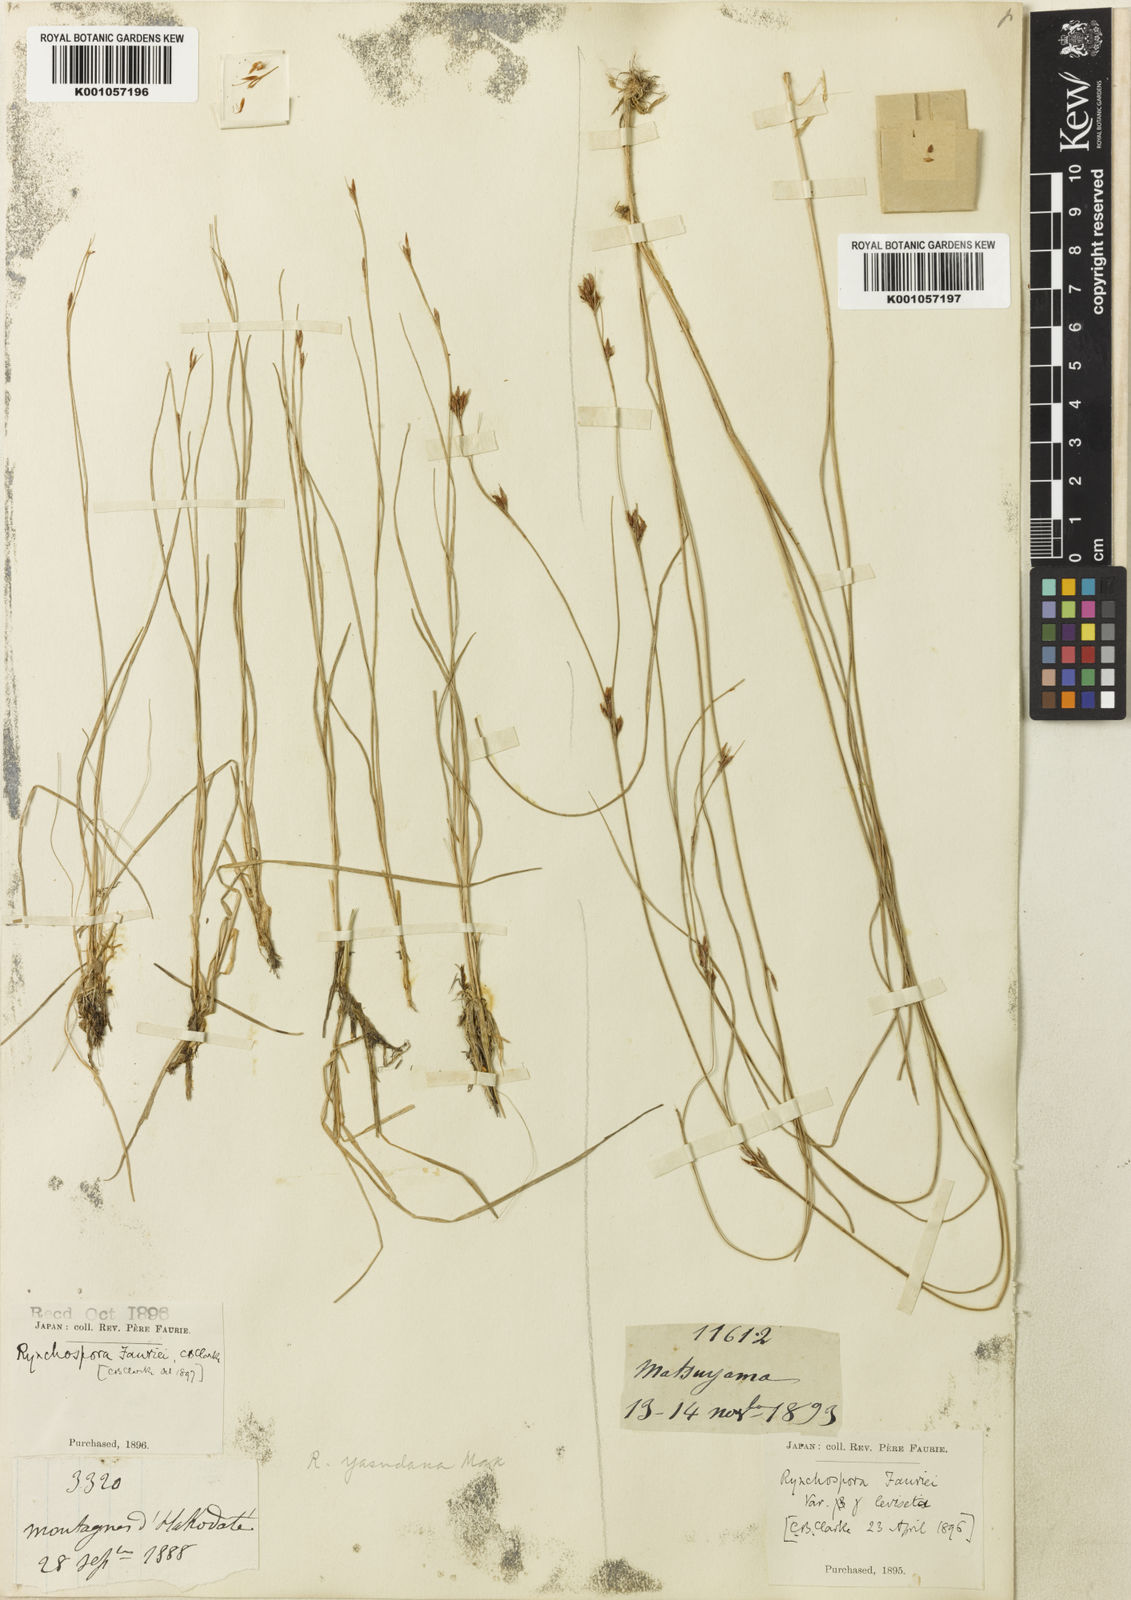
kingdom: Plantae
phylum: Tracheophyta
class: Liliopsida
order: Poales
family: Cyperaceae
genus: Rhynchospora
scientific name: Rhynchospora
